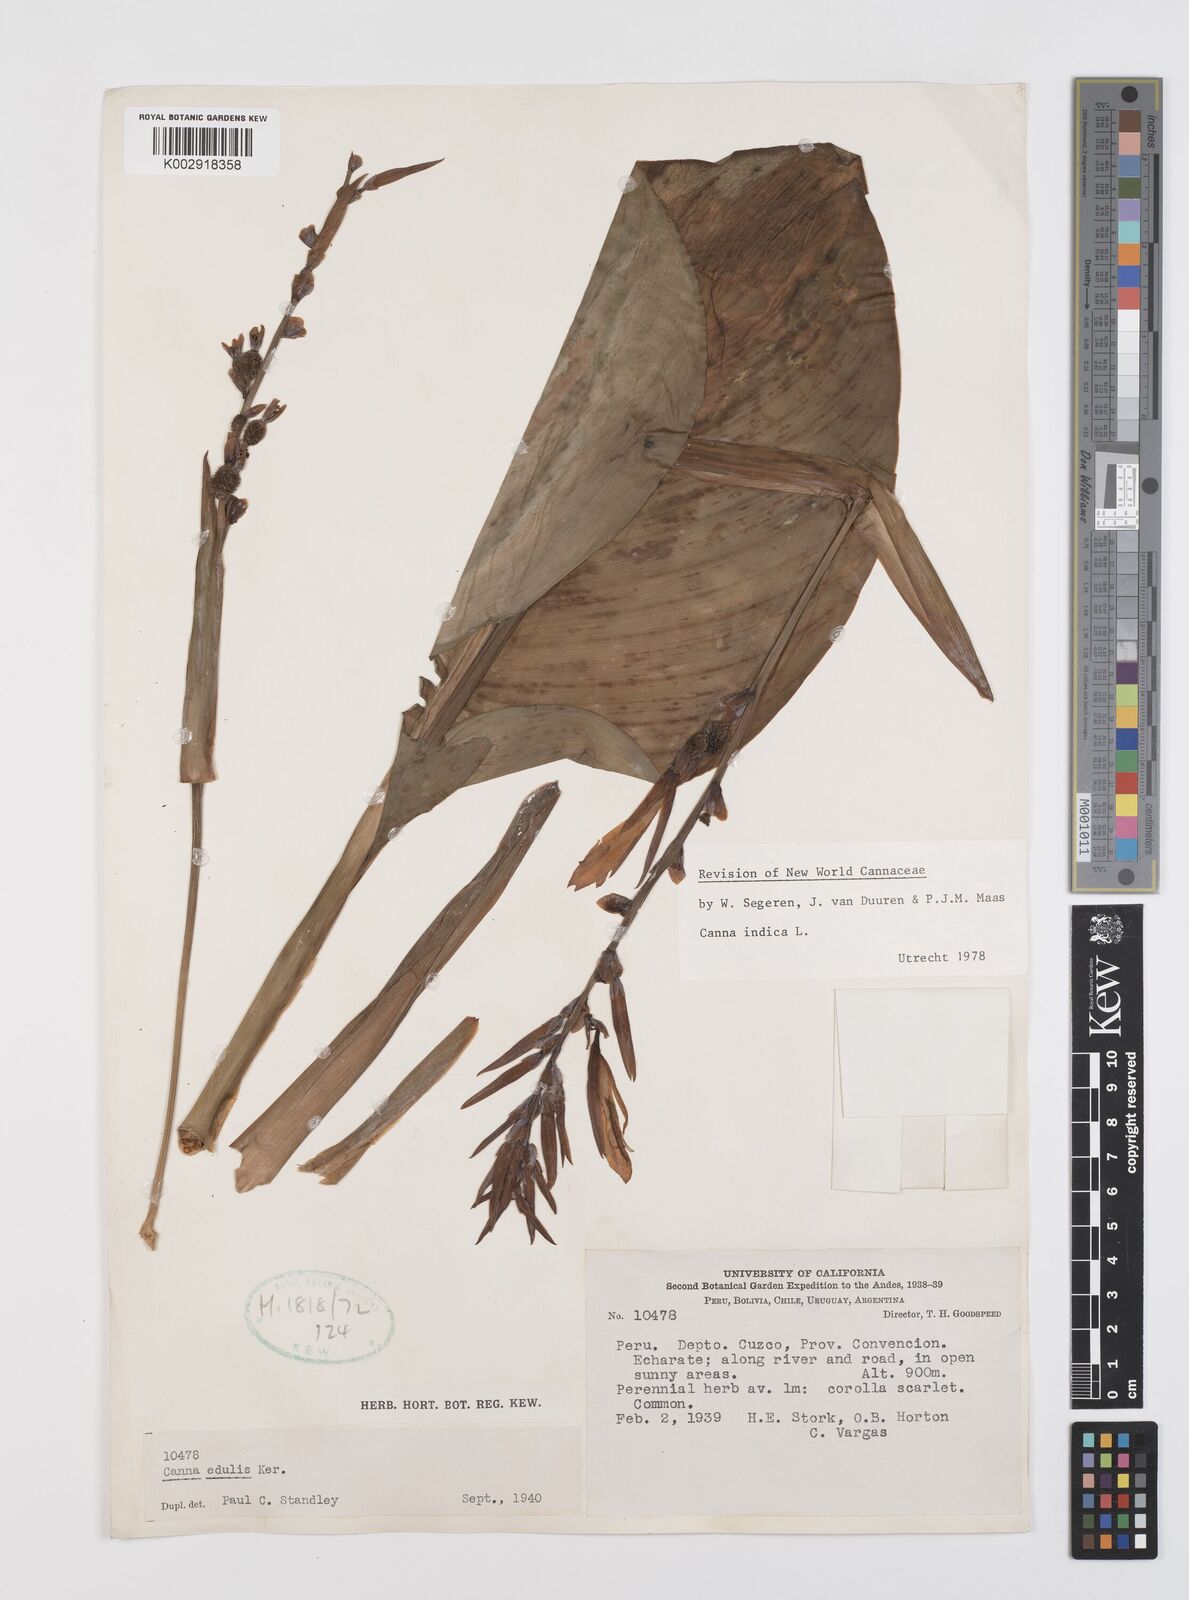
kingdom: Plantae
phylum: Tracheophyta
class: Liliopsida
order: Zingiberales
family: Cannaceae
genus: Canna
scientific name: Canna indica
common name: Indian shot
